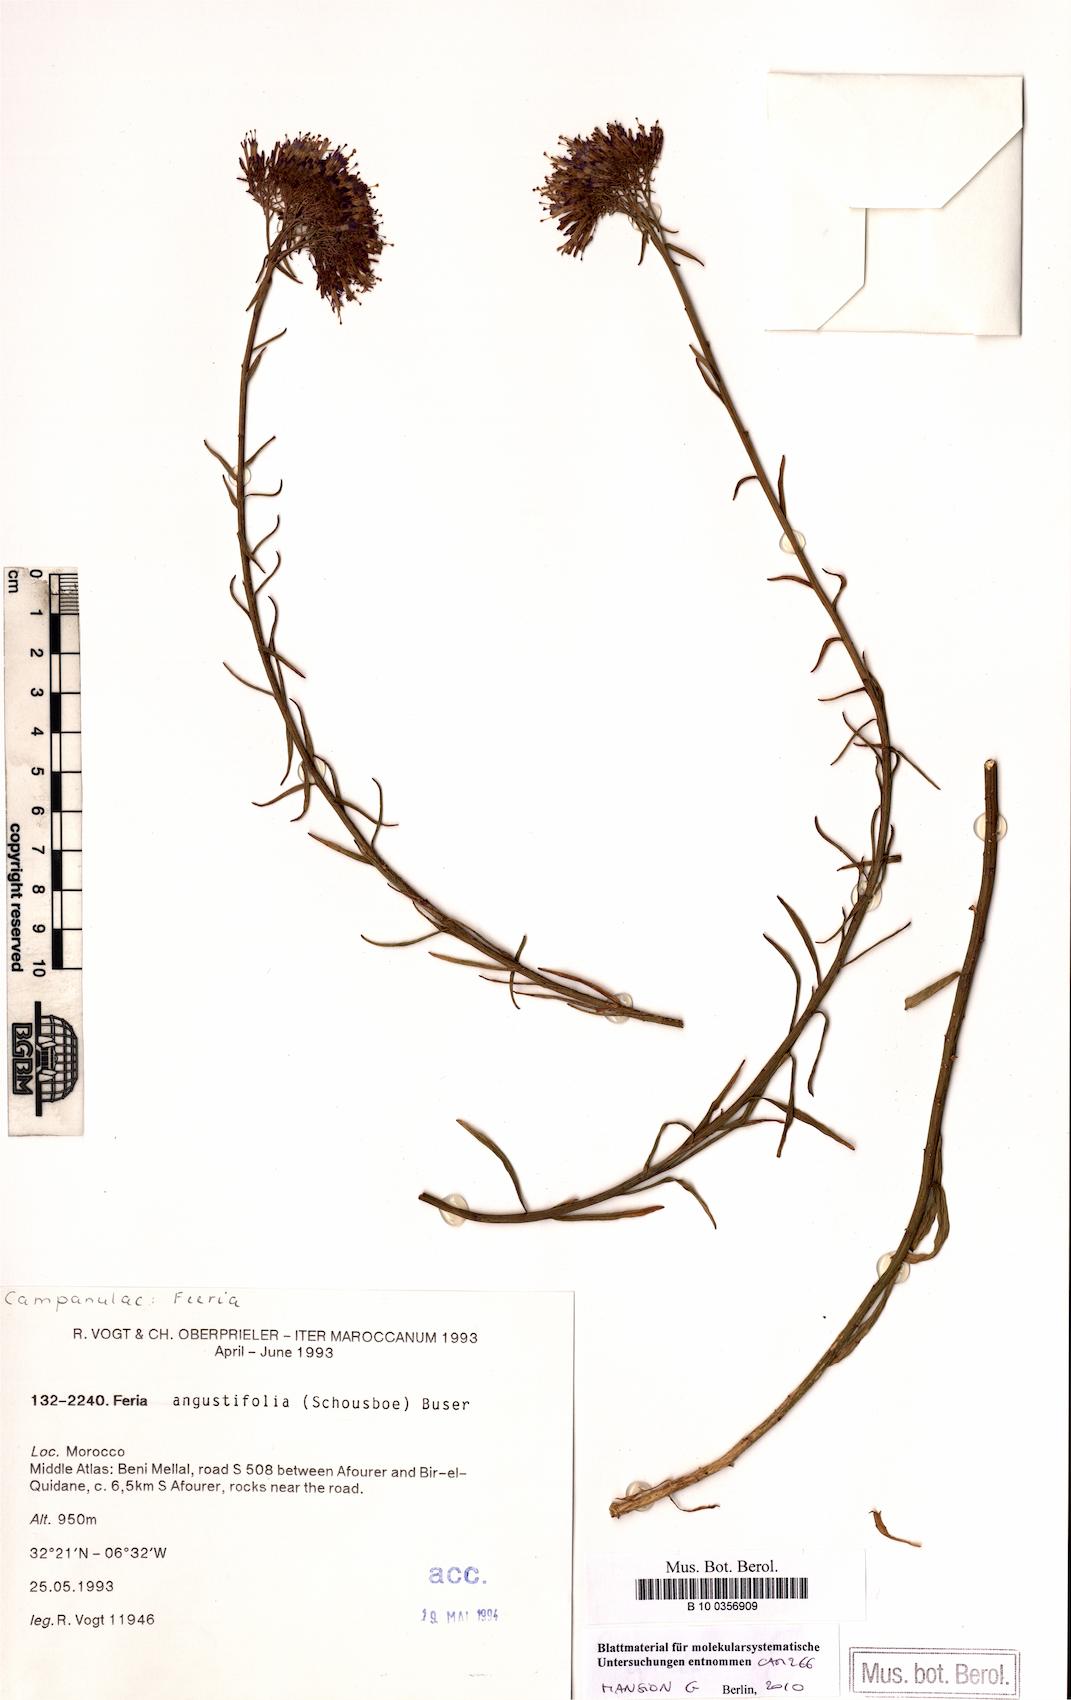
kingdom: Plantae
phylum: Tracheophyta
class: Magnoliopsida
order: Asterales
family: Campanulaceae
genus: Feeria
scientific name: Feeria angustifolia
